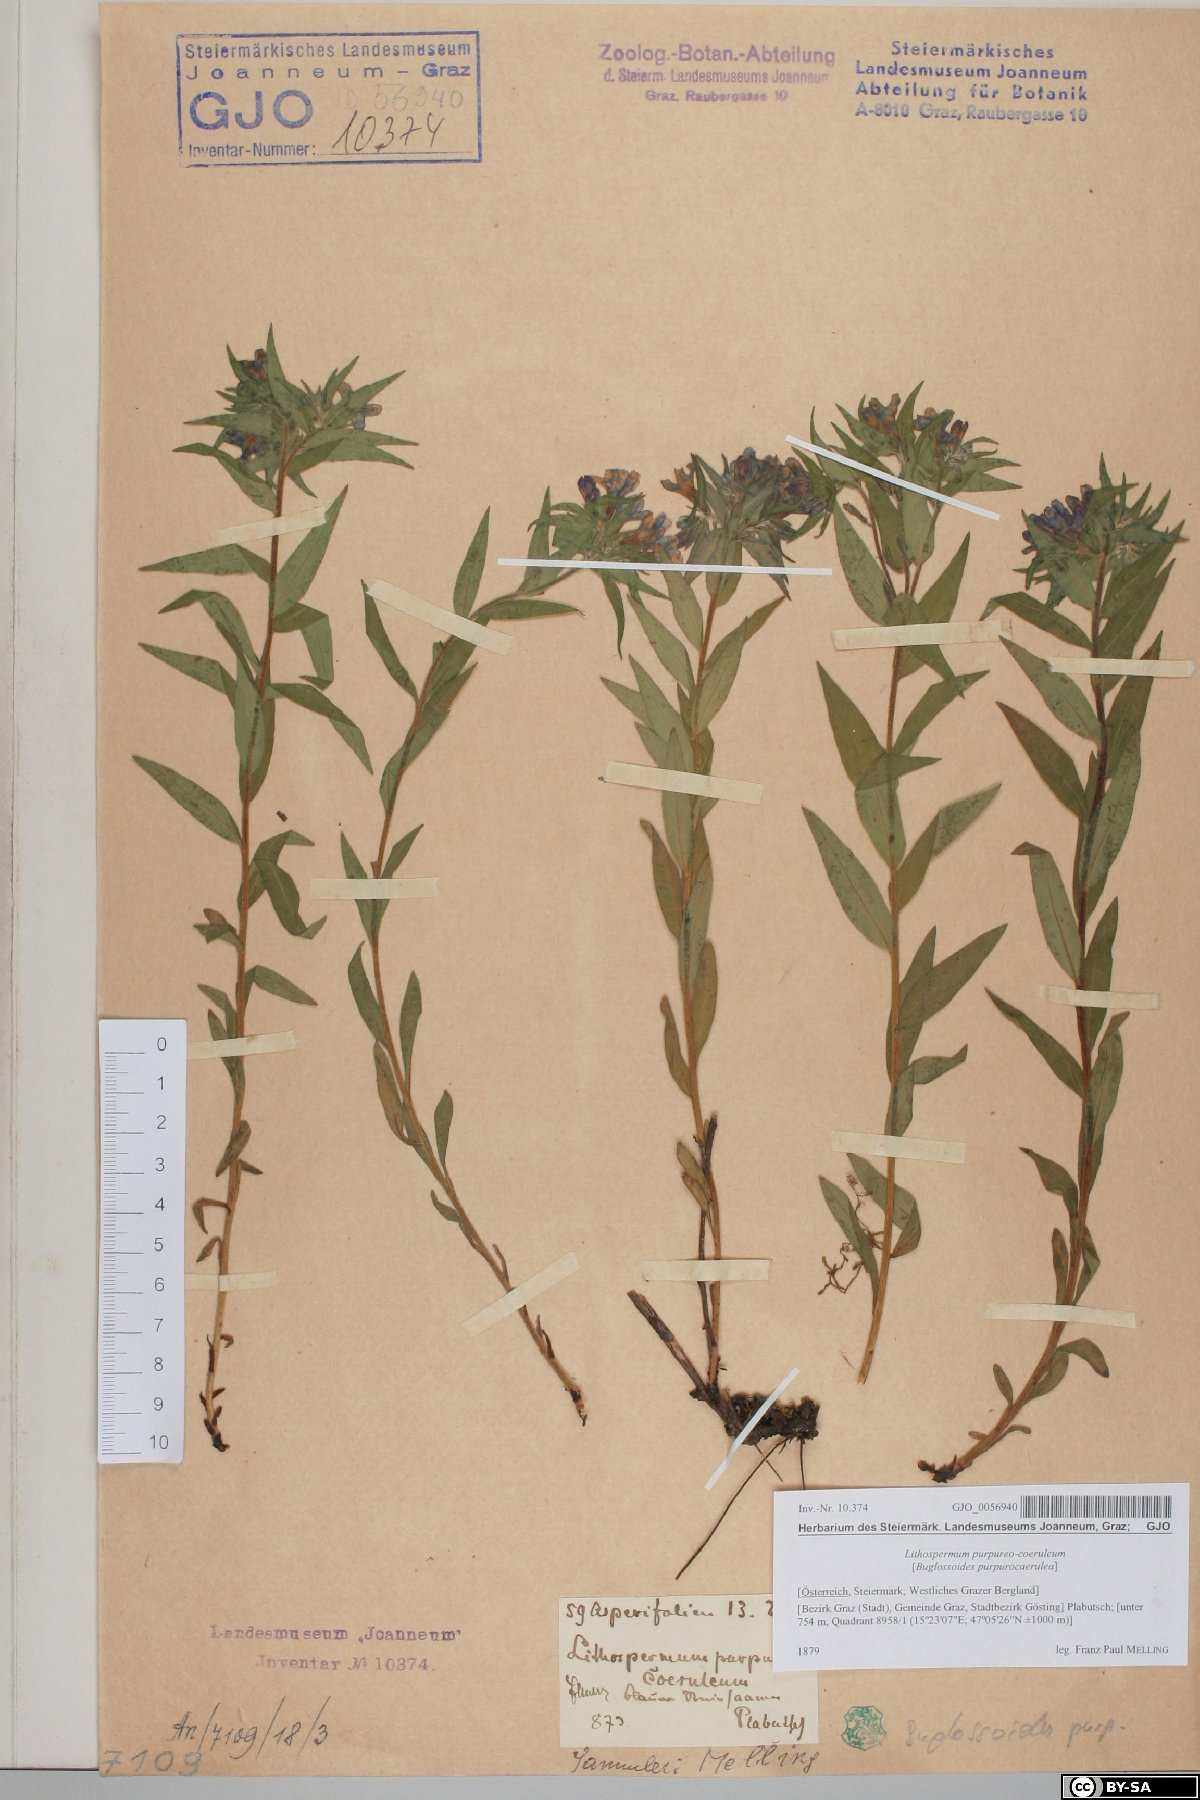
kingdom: Plantae
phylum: Tracheophyta
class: Magnoliopsida
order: Boraginales
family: Boraginaceae
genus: Aegonychon
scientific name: Aegonychon purpurocaeruleum
